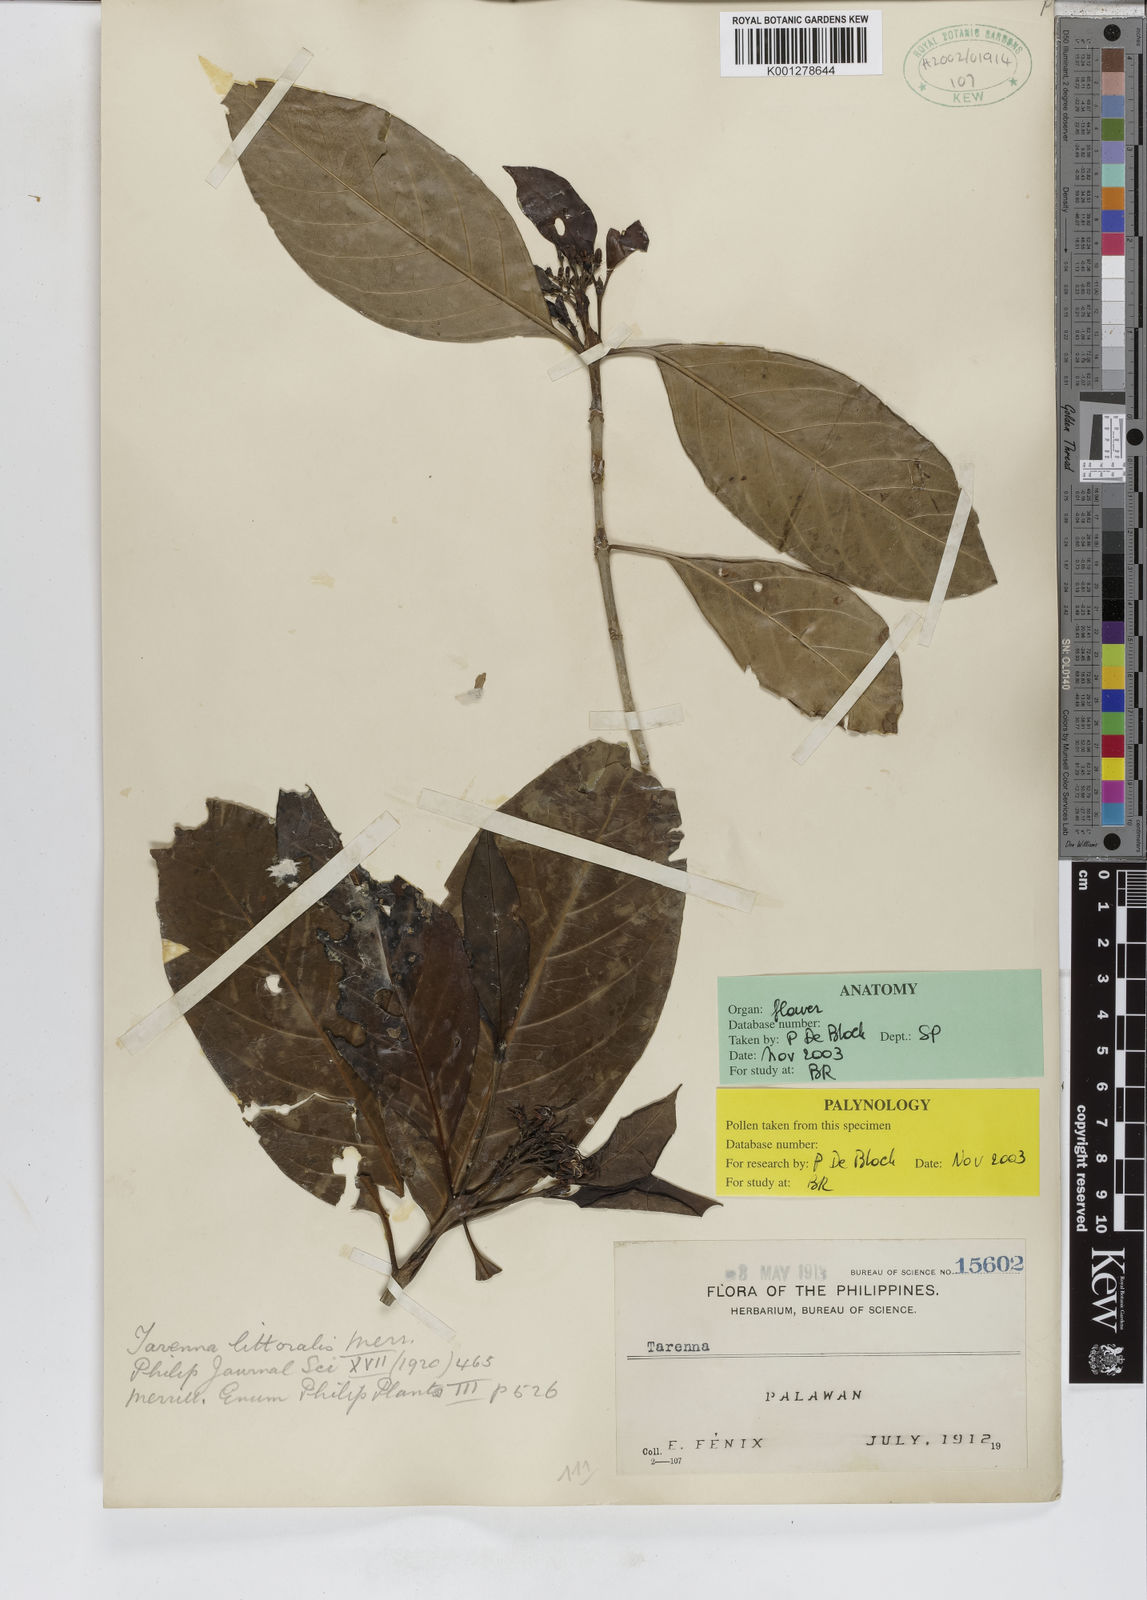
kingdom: Plantae
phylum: Tracheophyta
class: Magnoliopsida
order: Gentianales
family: Rubiaceae
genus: Coptosperma
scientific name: Coptosperma littorale
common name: Dune butterspoon
